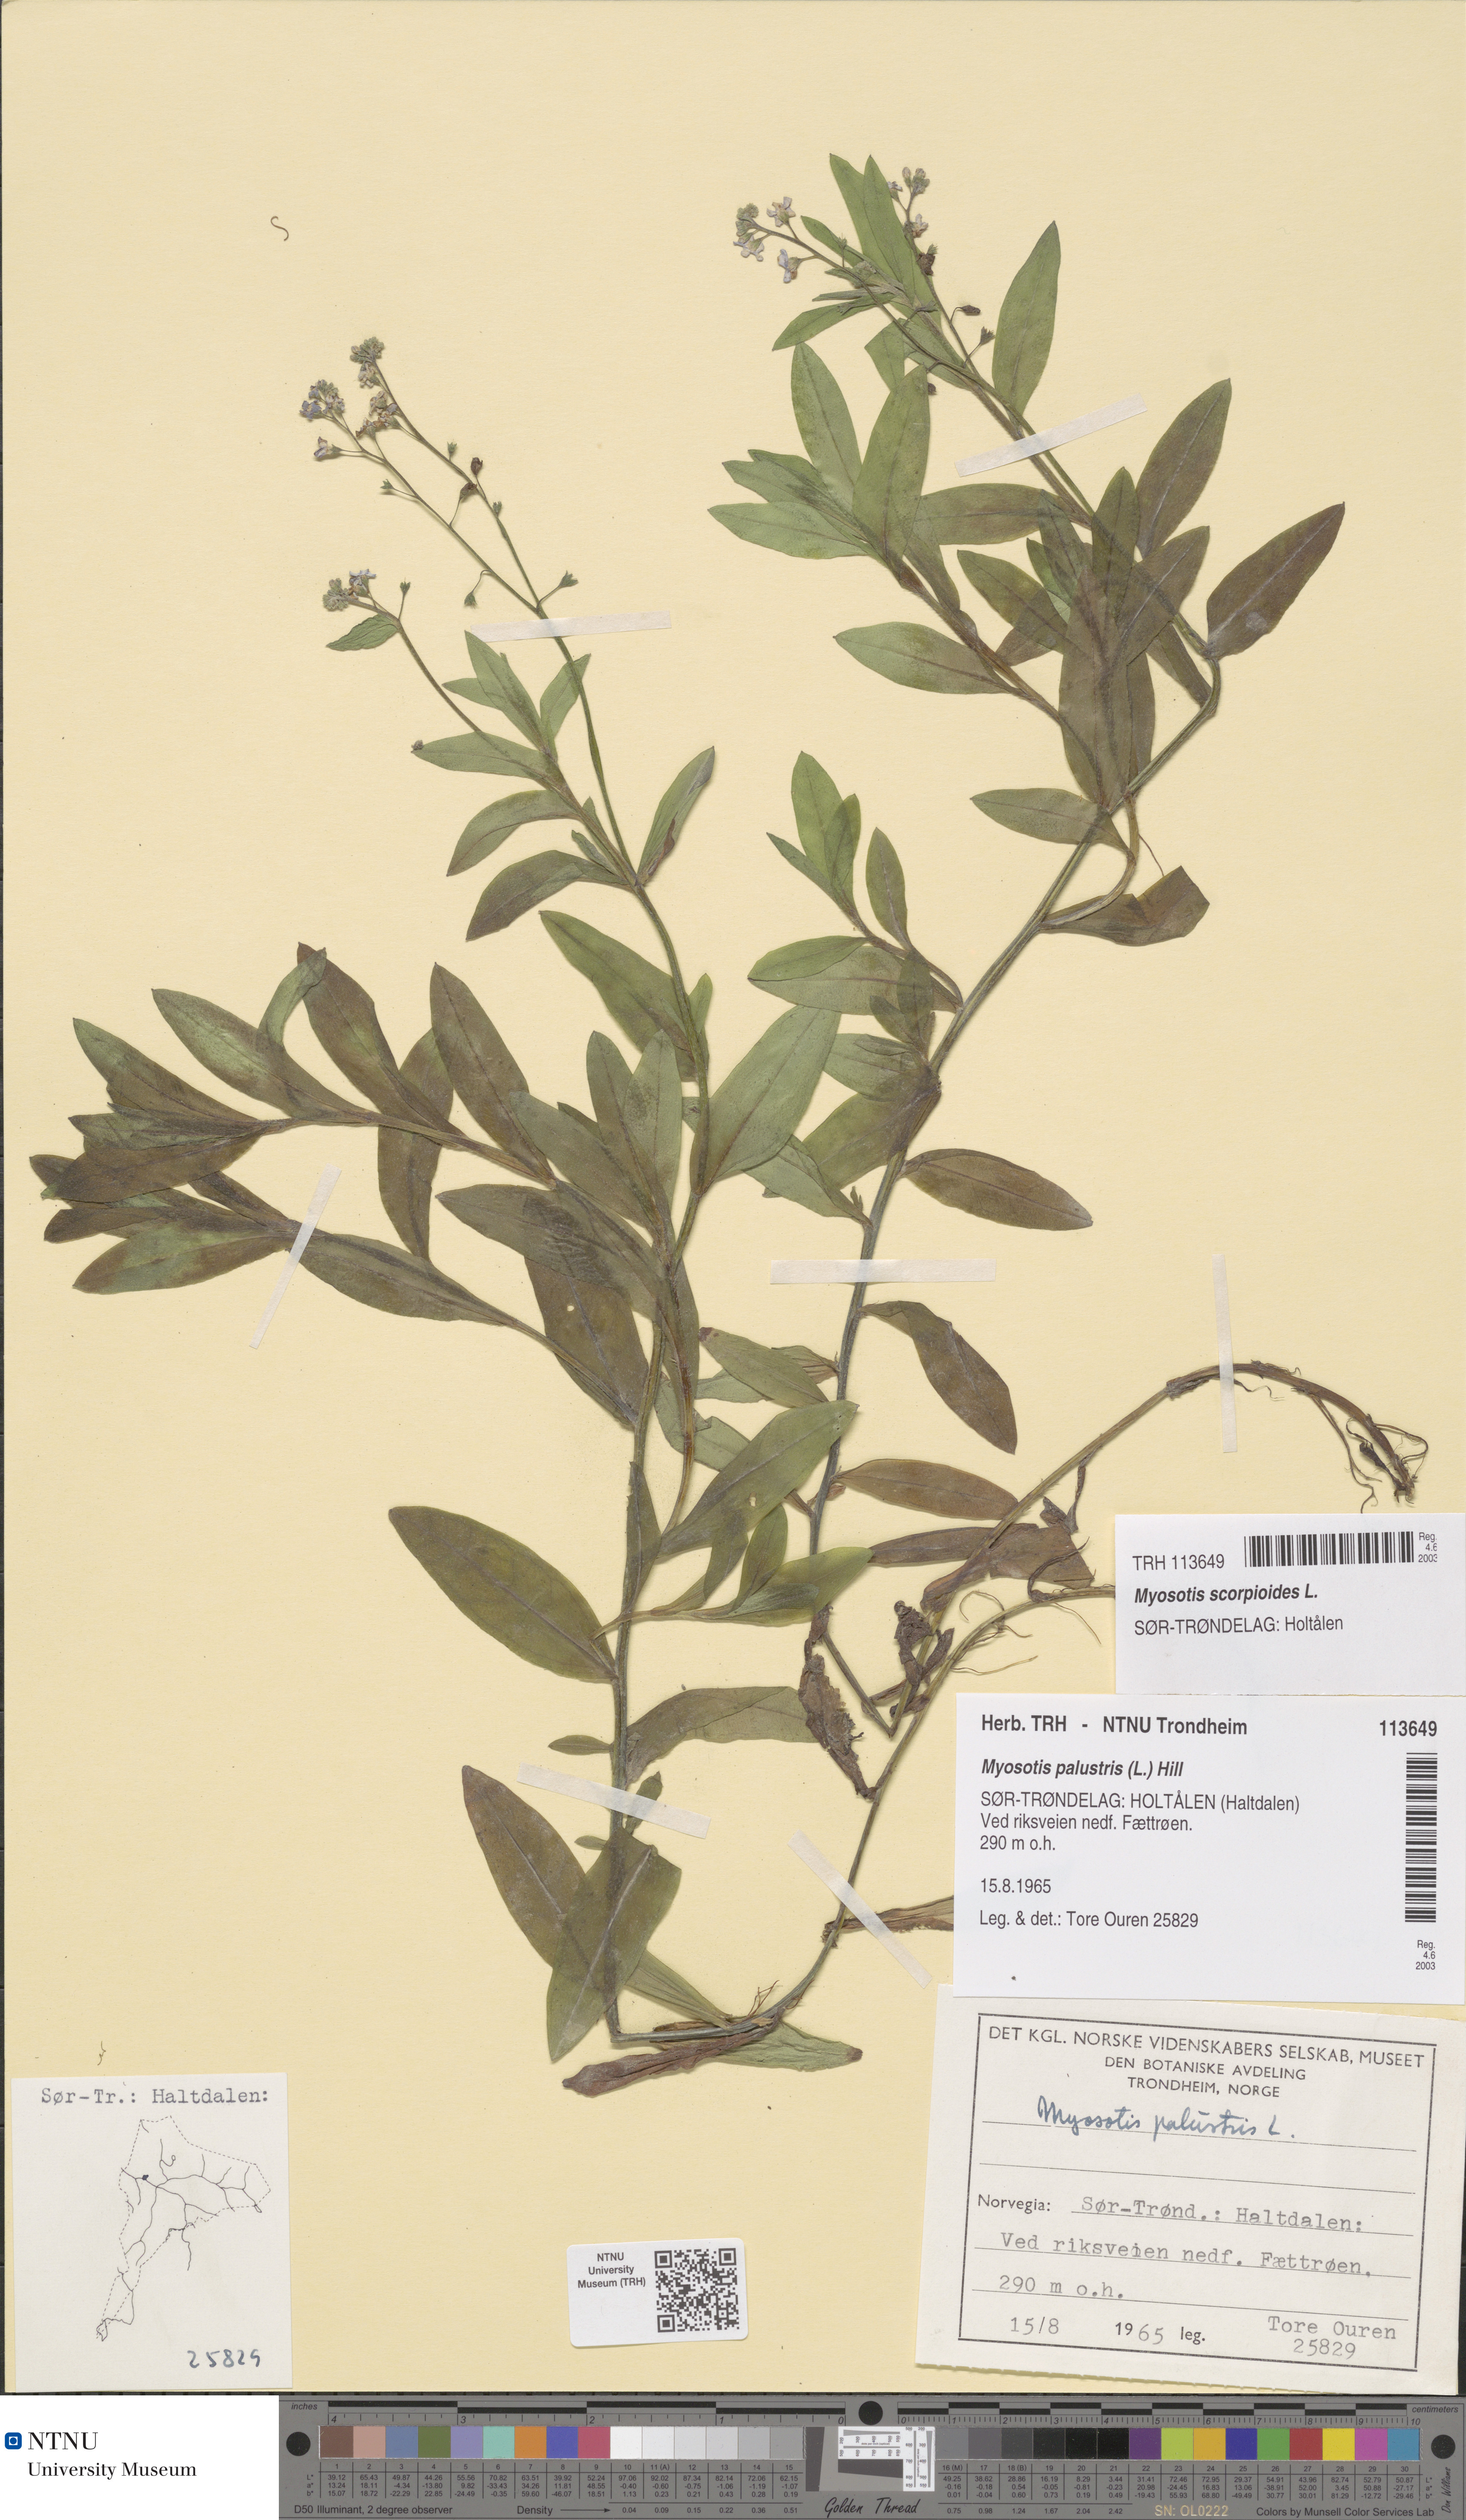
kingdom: Plantae
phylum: Tracheophyta
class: Magnoliopsida
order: Boraginales
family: Boraginaceae
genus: Myosotis
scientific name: Myosotis scorpioides
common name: Water forget-me-not
